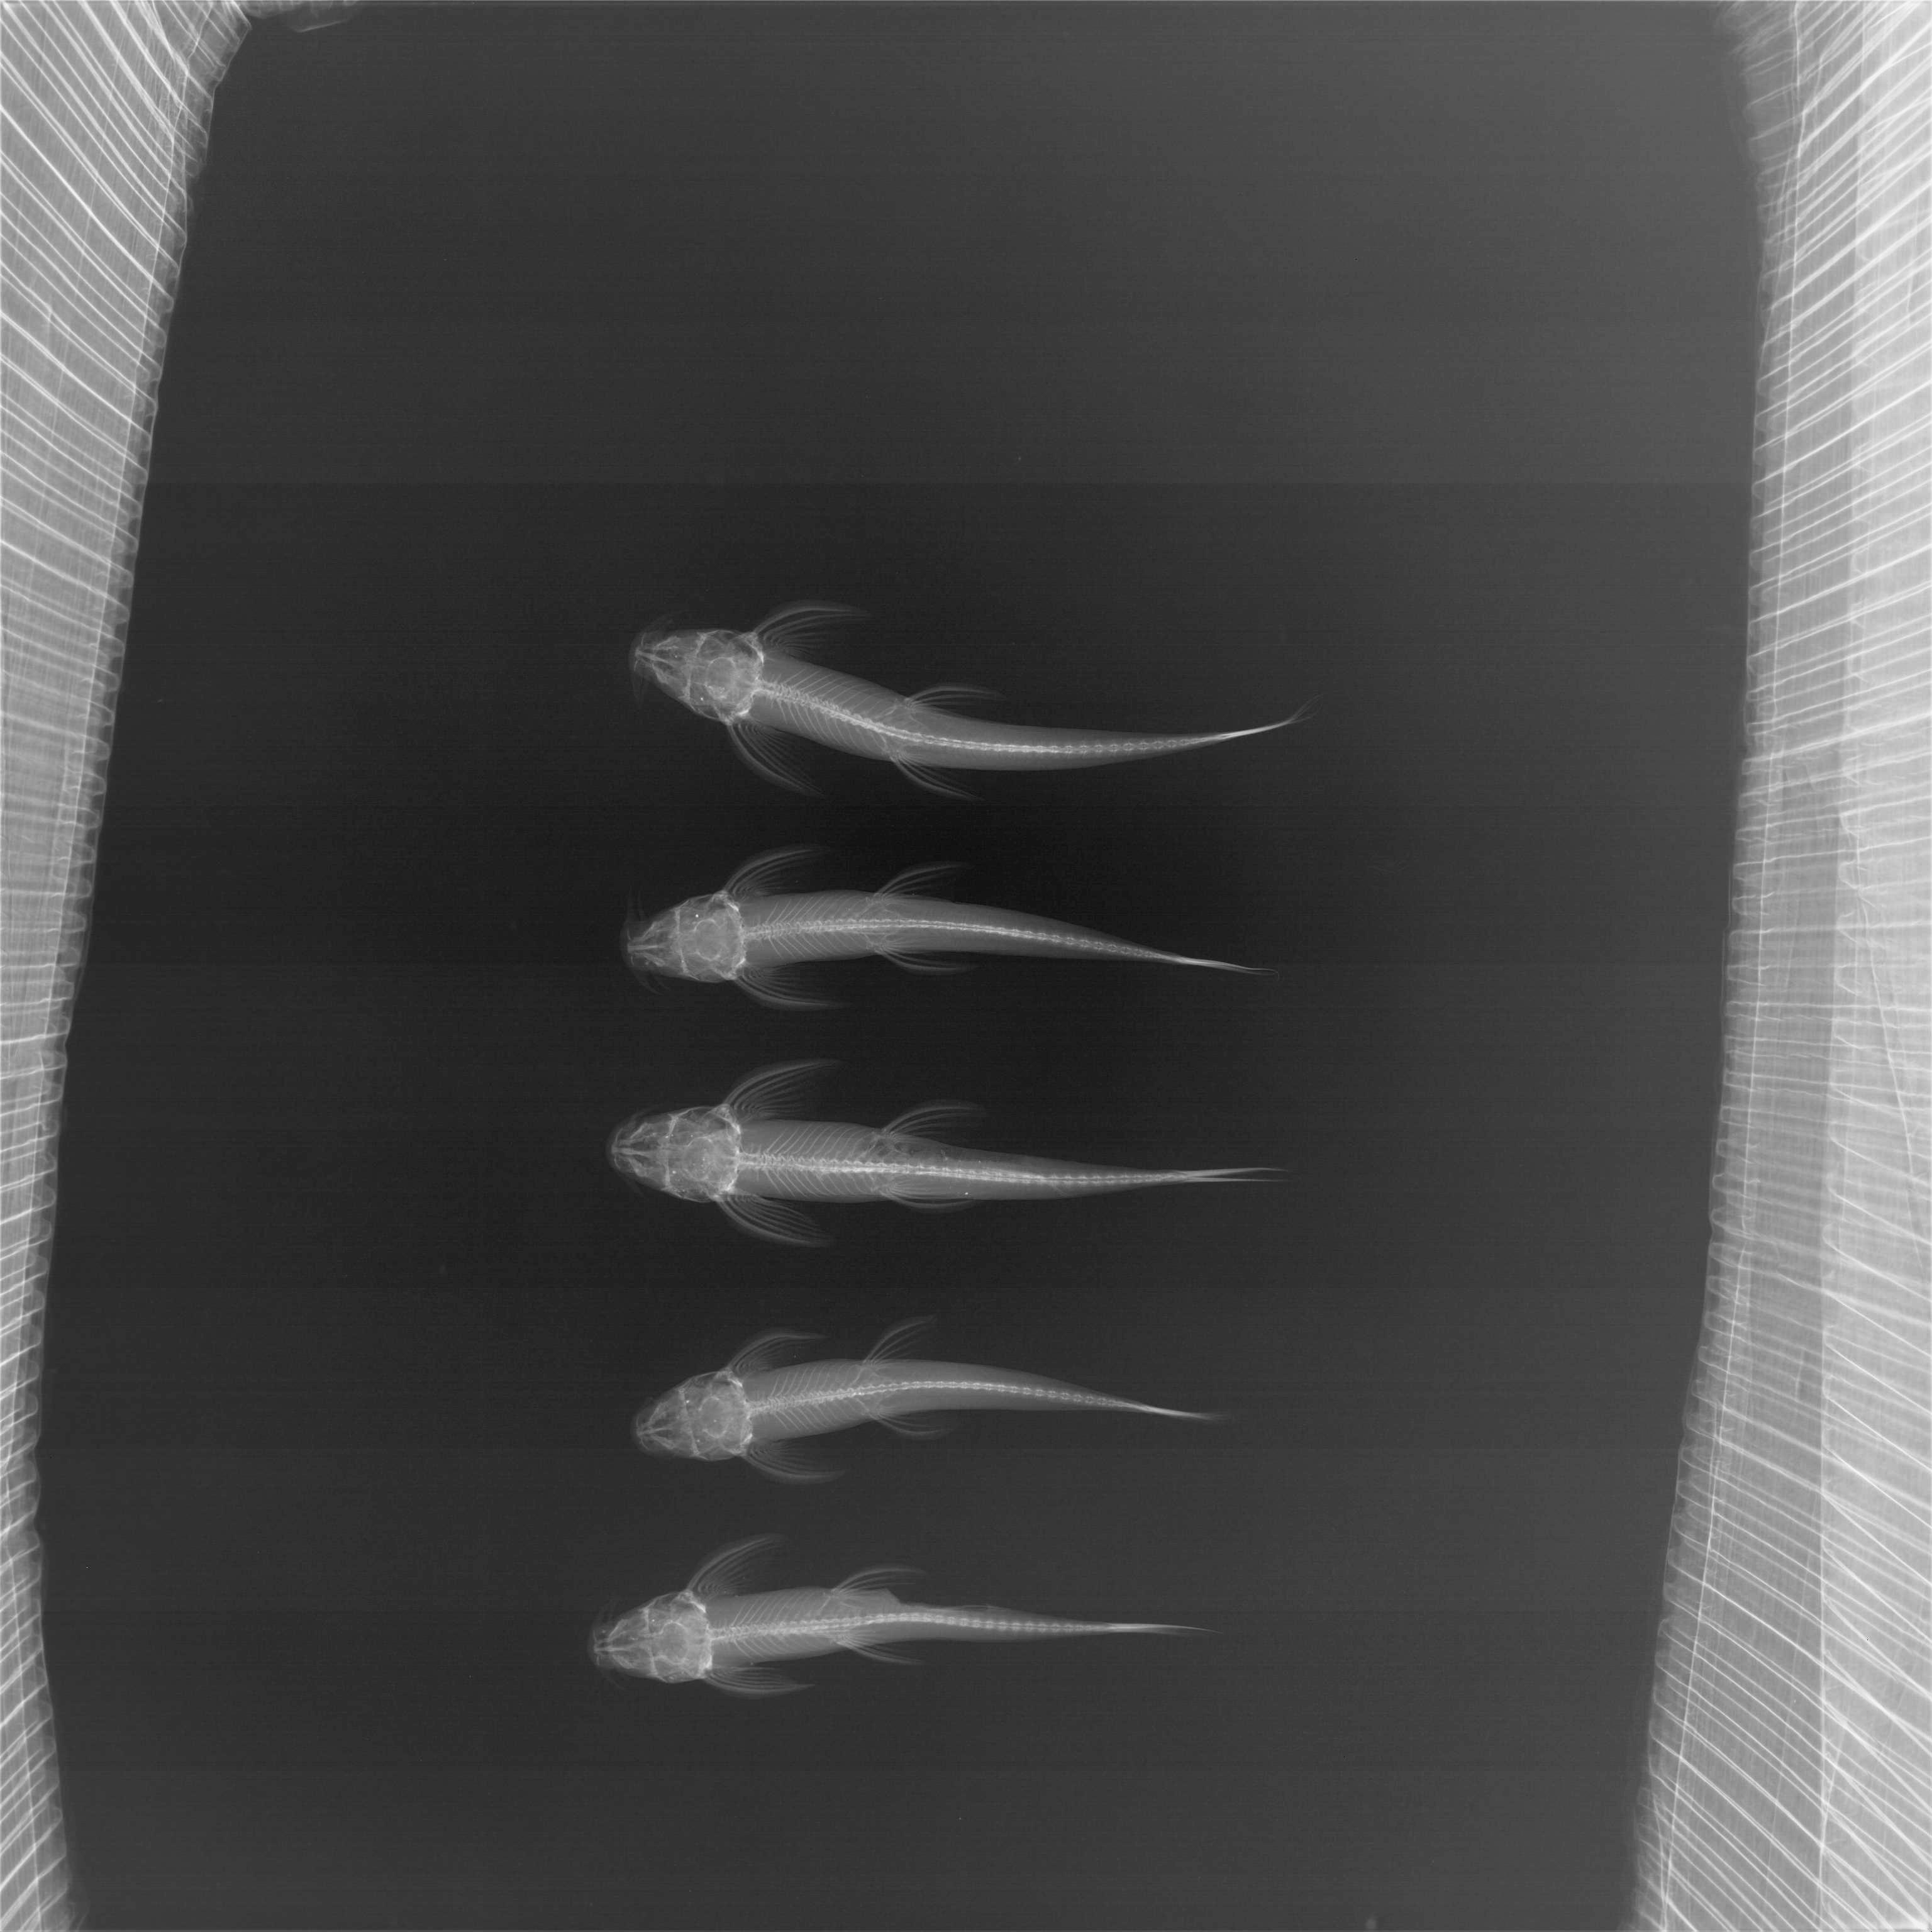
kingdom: Animalia
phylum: Chordata
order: Siluriformes
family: Amphiliidae
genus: Doumea
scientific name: Doumea
